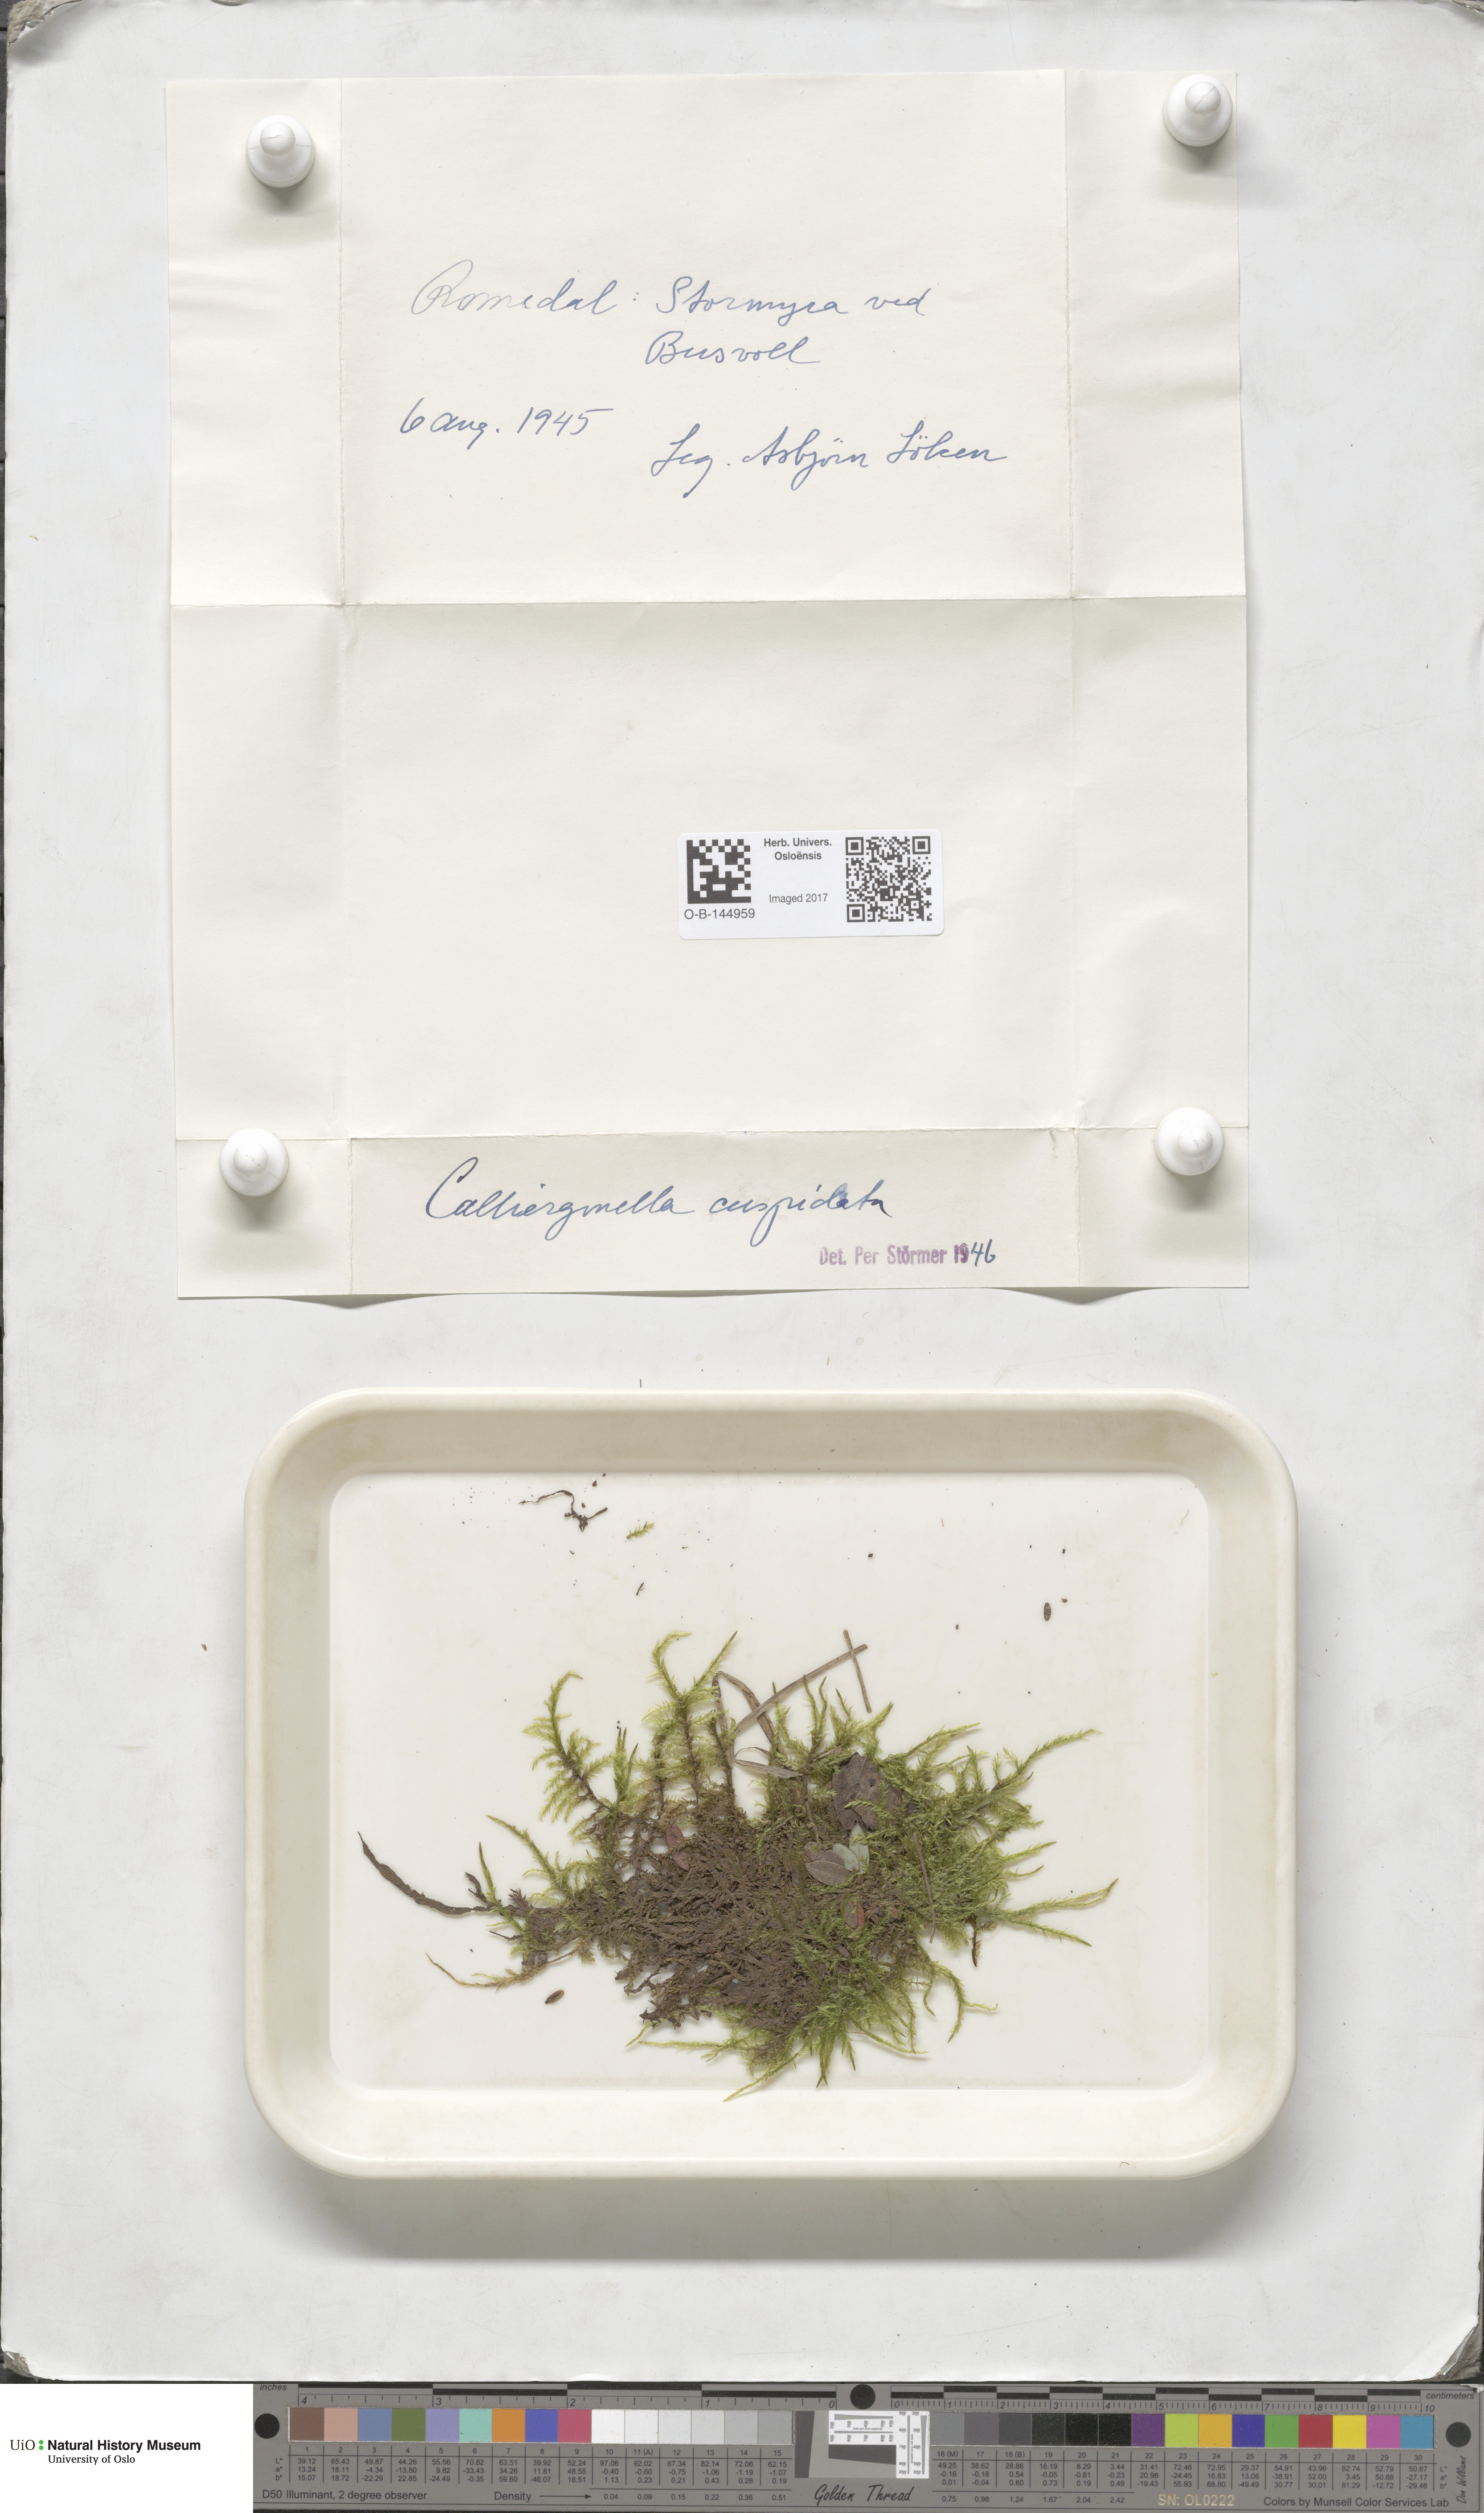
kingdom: Plantae
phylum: Bryophyta
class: Bryopsida
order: Hypnales
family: Pylaisiaceae
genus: Calliergonella
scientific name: Calliergonella cuspidata
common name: Common large wetland moss
